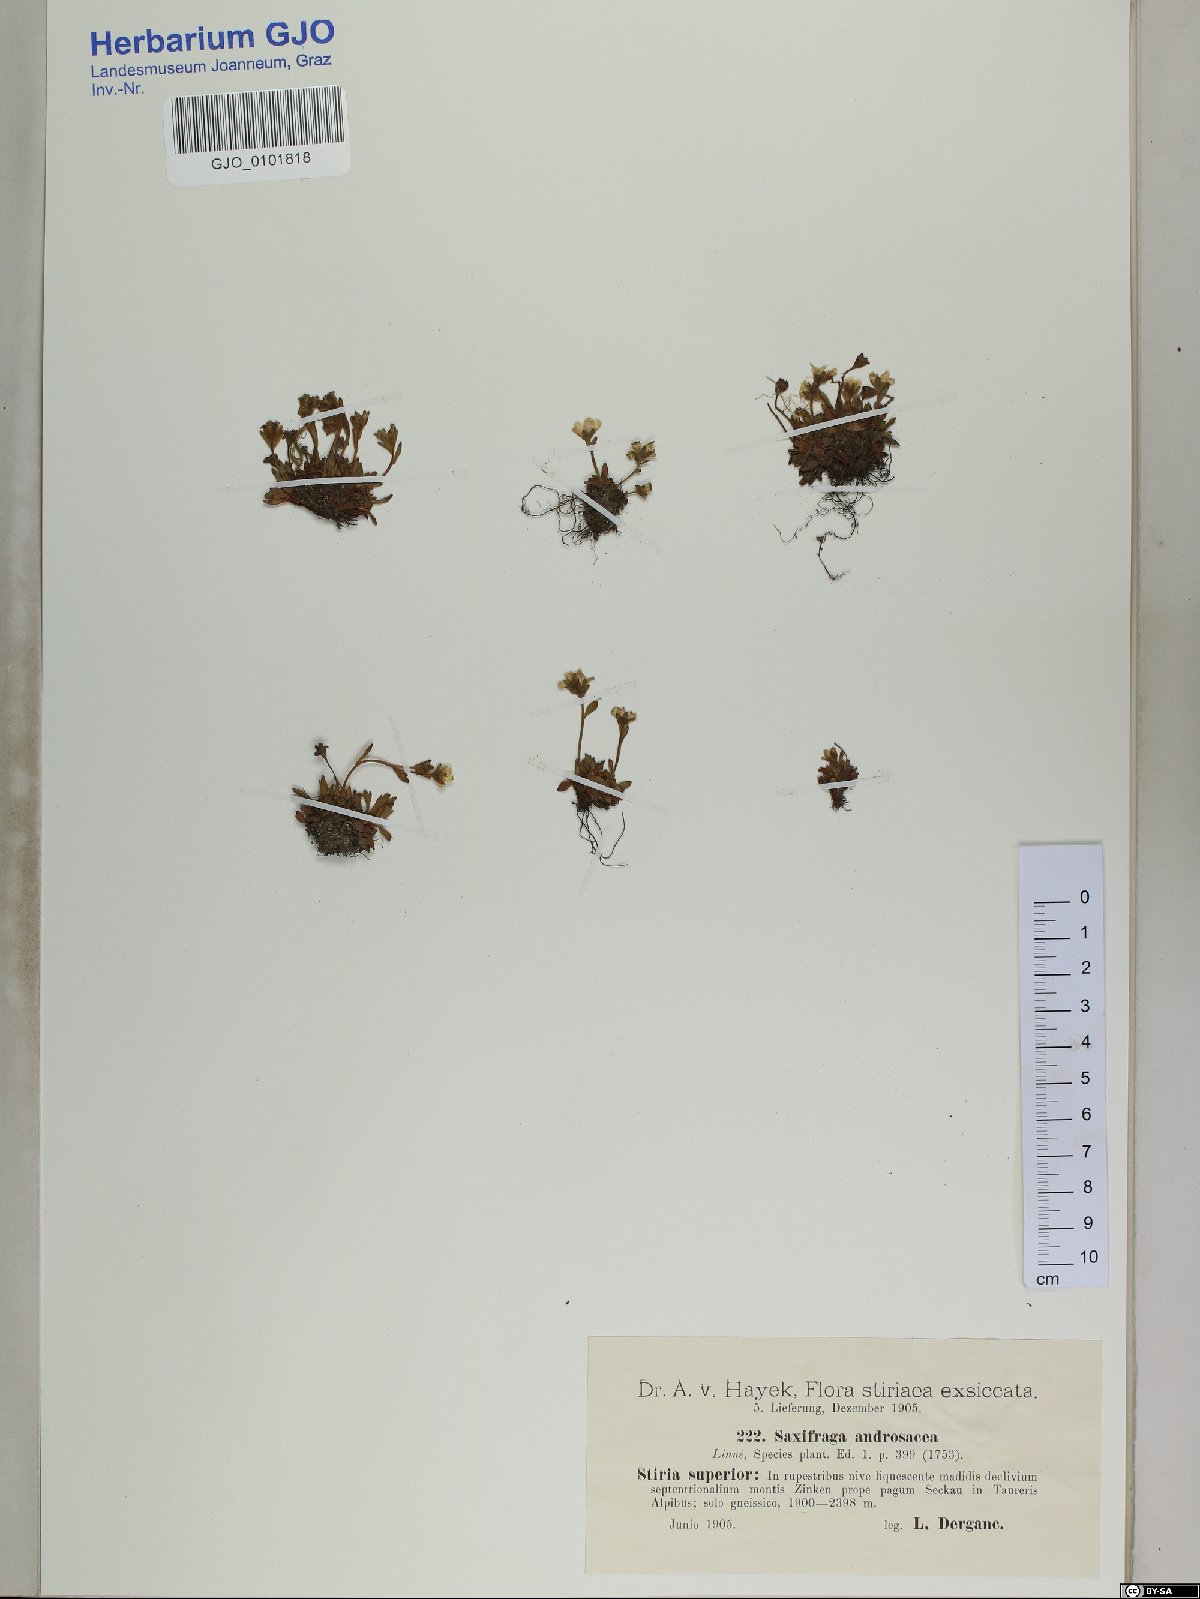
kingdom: Plantae
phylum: Tracheophyta
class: Magnoliopsida
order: Saxifragales
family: Saxifragaceae
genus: Saxifraga
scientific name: Saxifraga androsacea
